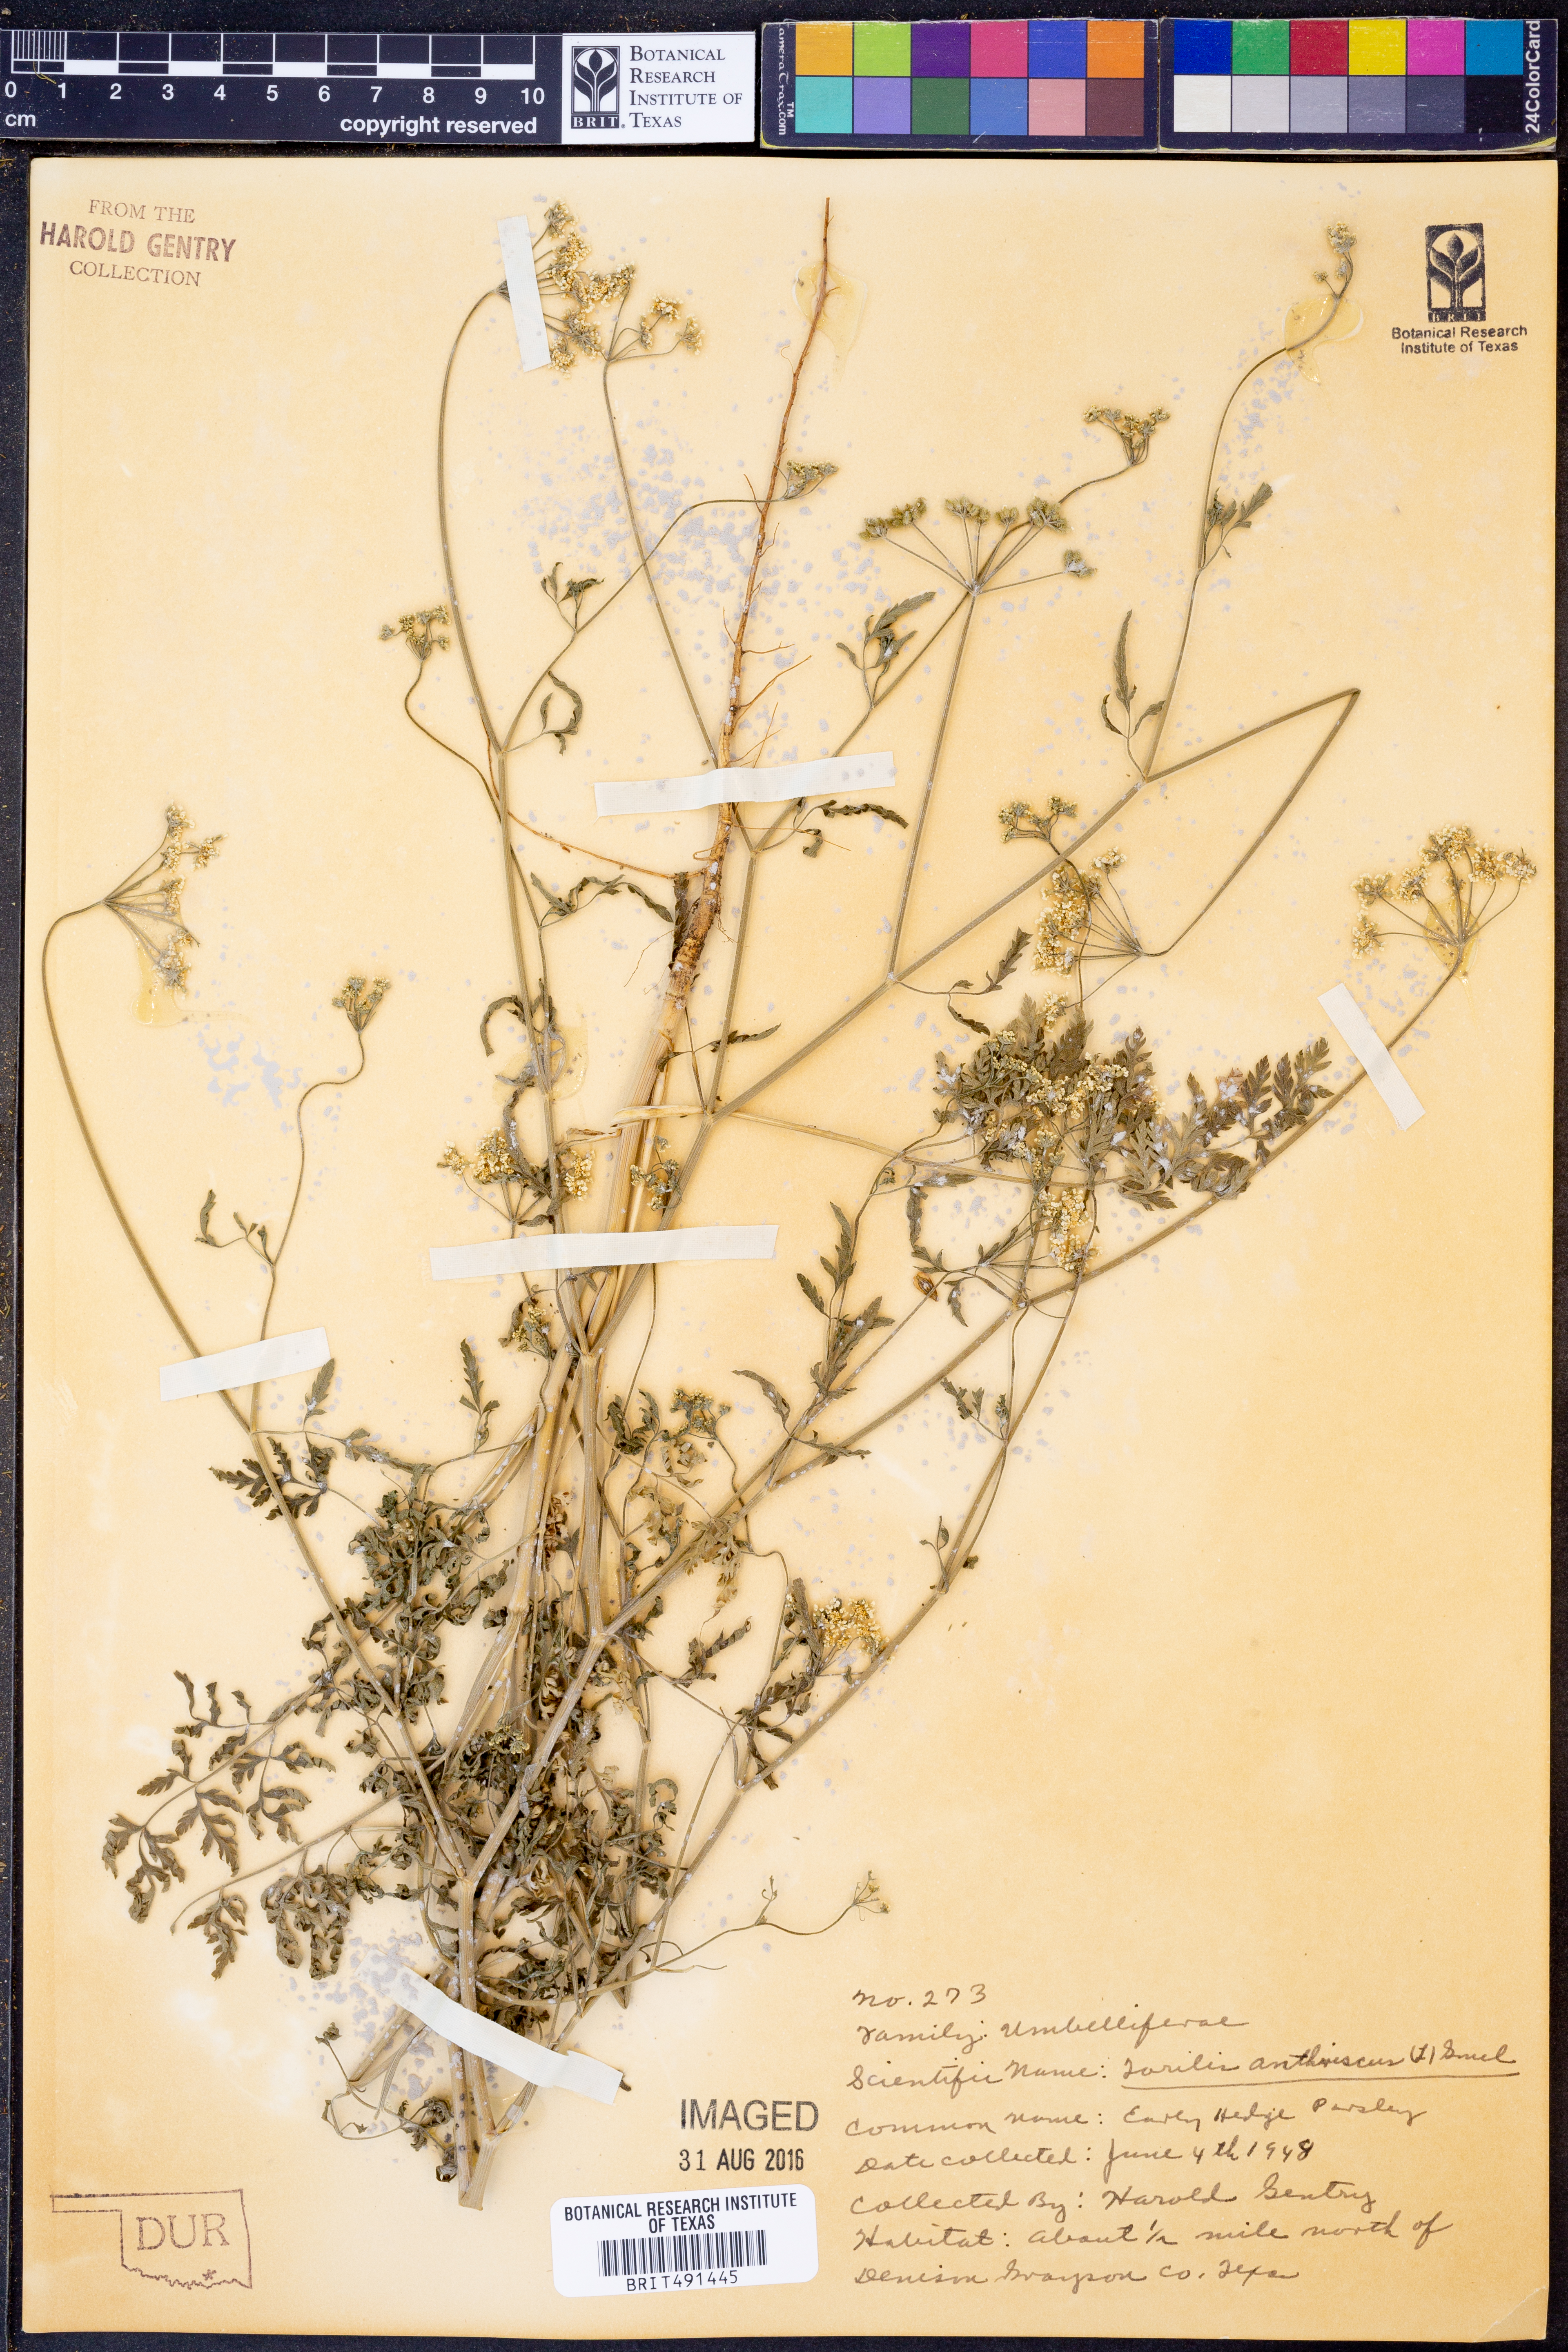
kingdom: Plantae
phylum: Tracheophyta
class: Magnoliopsida
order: Apiales
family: Apiaceae
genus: Torilis
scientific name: Torilis anthriscus
